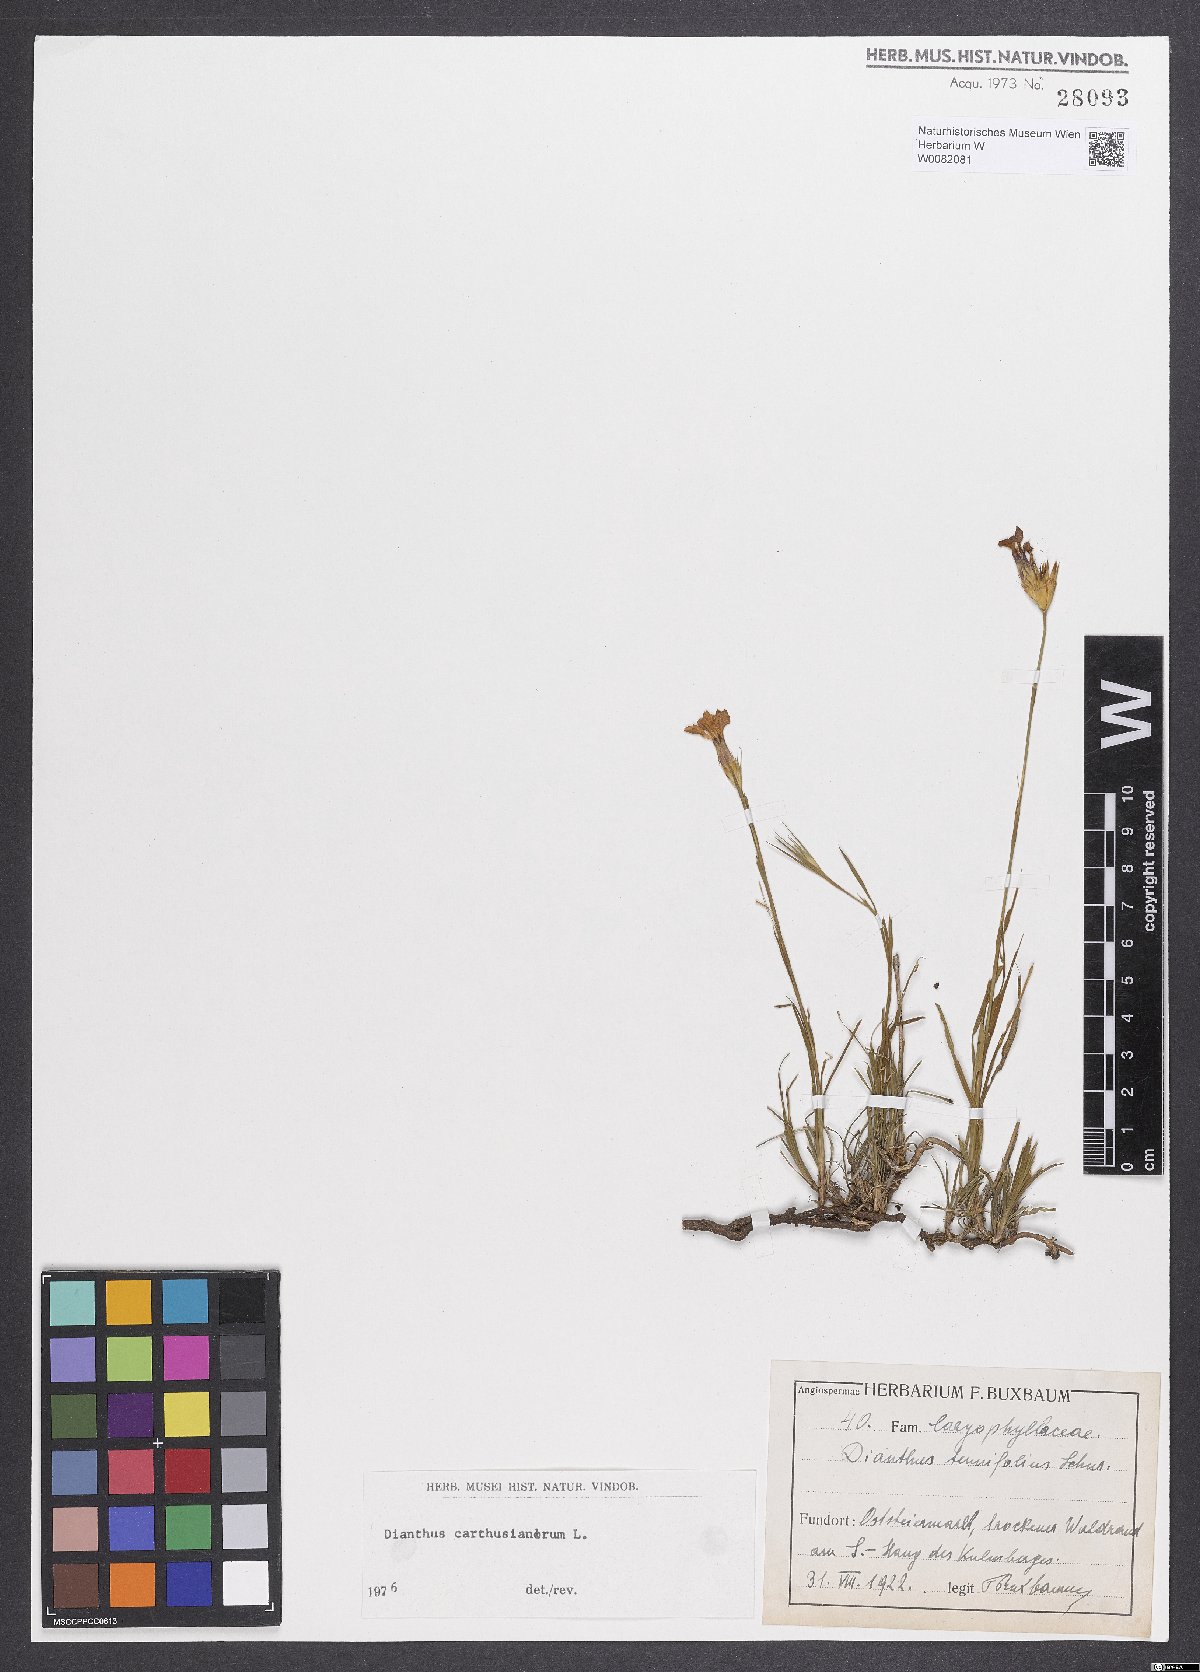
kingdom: Plantae
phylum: Tracheophyta
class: Magnoliopsida
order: Caryophyllales
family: Caryophyllaceae
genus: Dianthus
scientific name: Dianthus carthusianorum
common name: Carthusian pink
